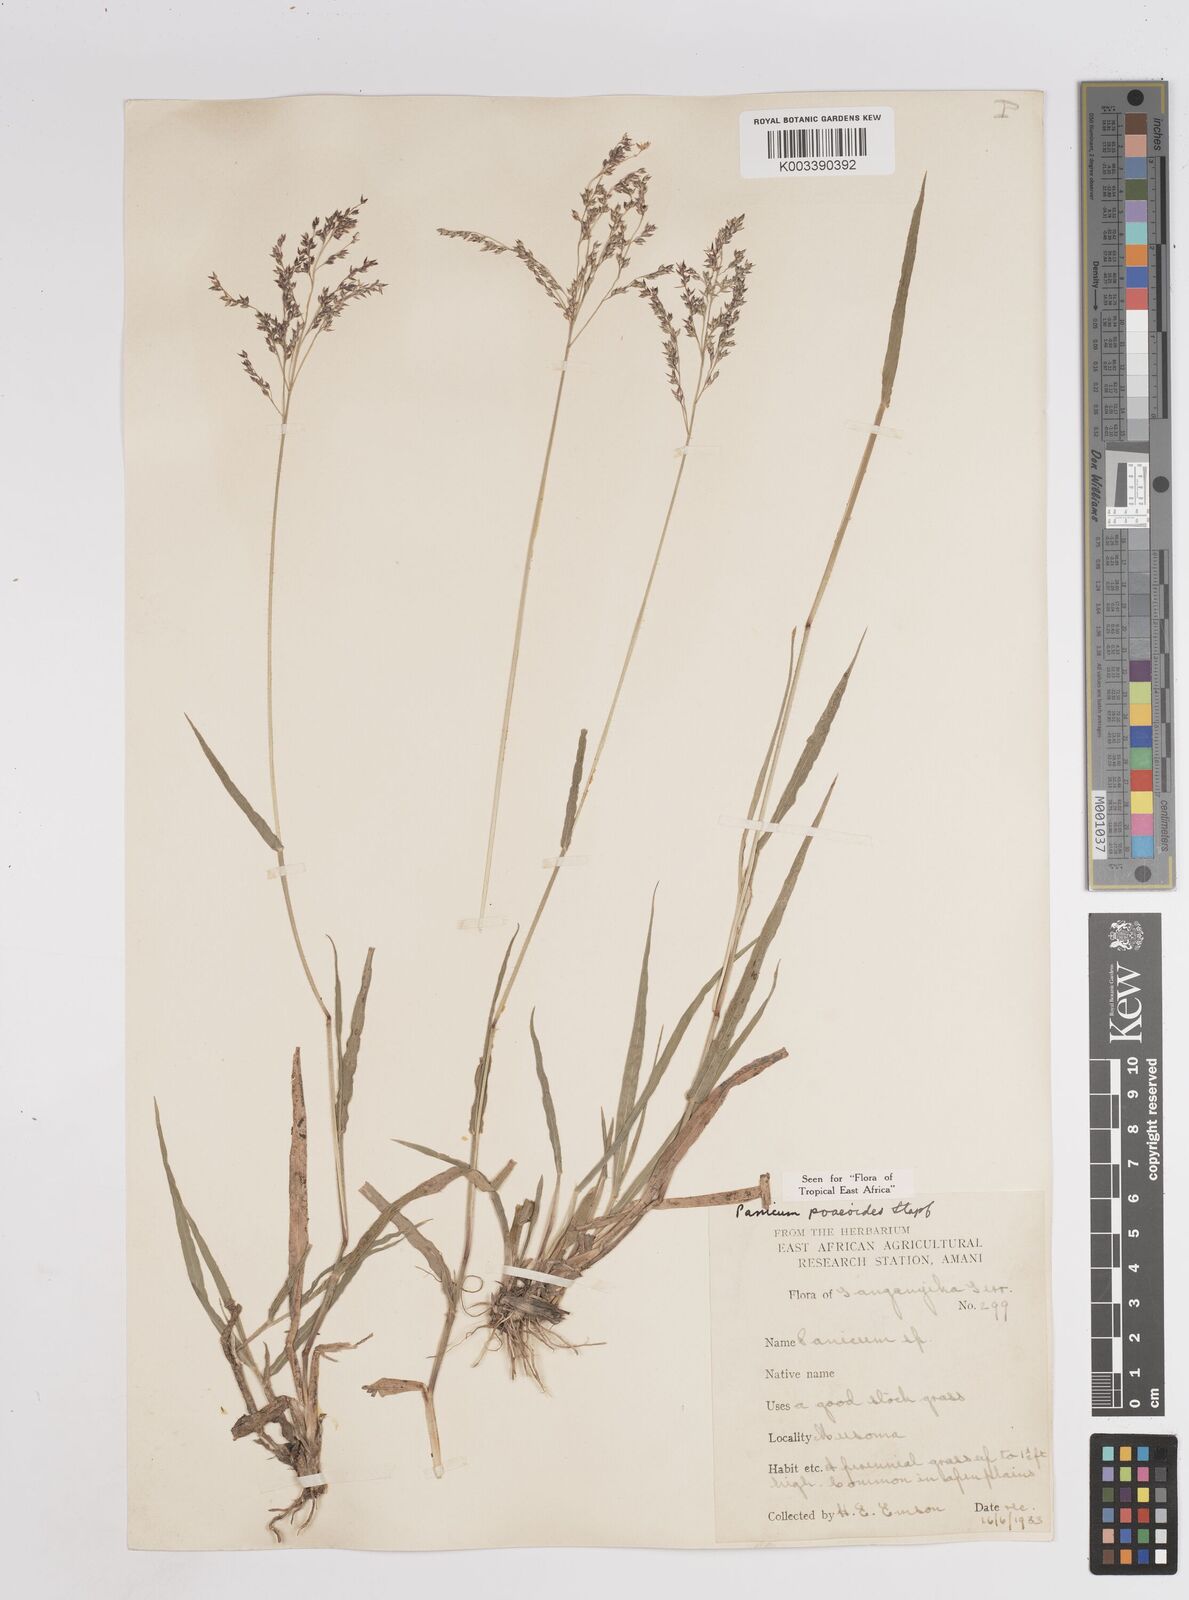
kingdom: Plantae
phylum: Tracheophyta
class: Liliopsida
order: Poales
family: Poaceae
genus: Panicum
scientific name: Panicum
